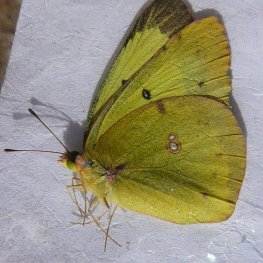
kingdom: Animalia
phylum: Arthropoda
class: Insecta
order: Lepidoptera
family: Pieridae
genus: Colias
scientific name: Colias philodice
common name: Clouded Sulphur
